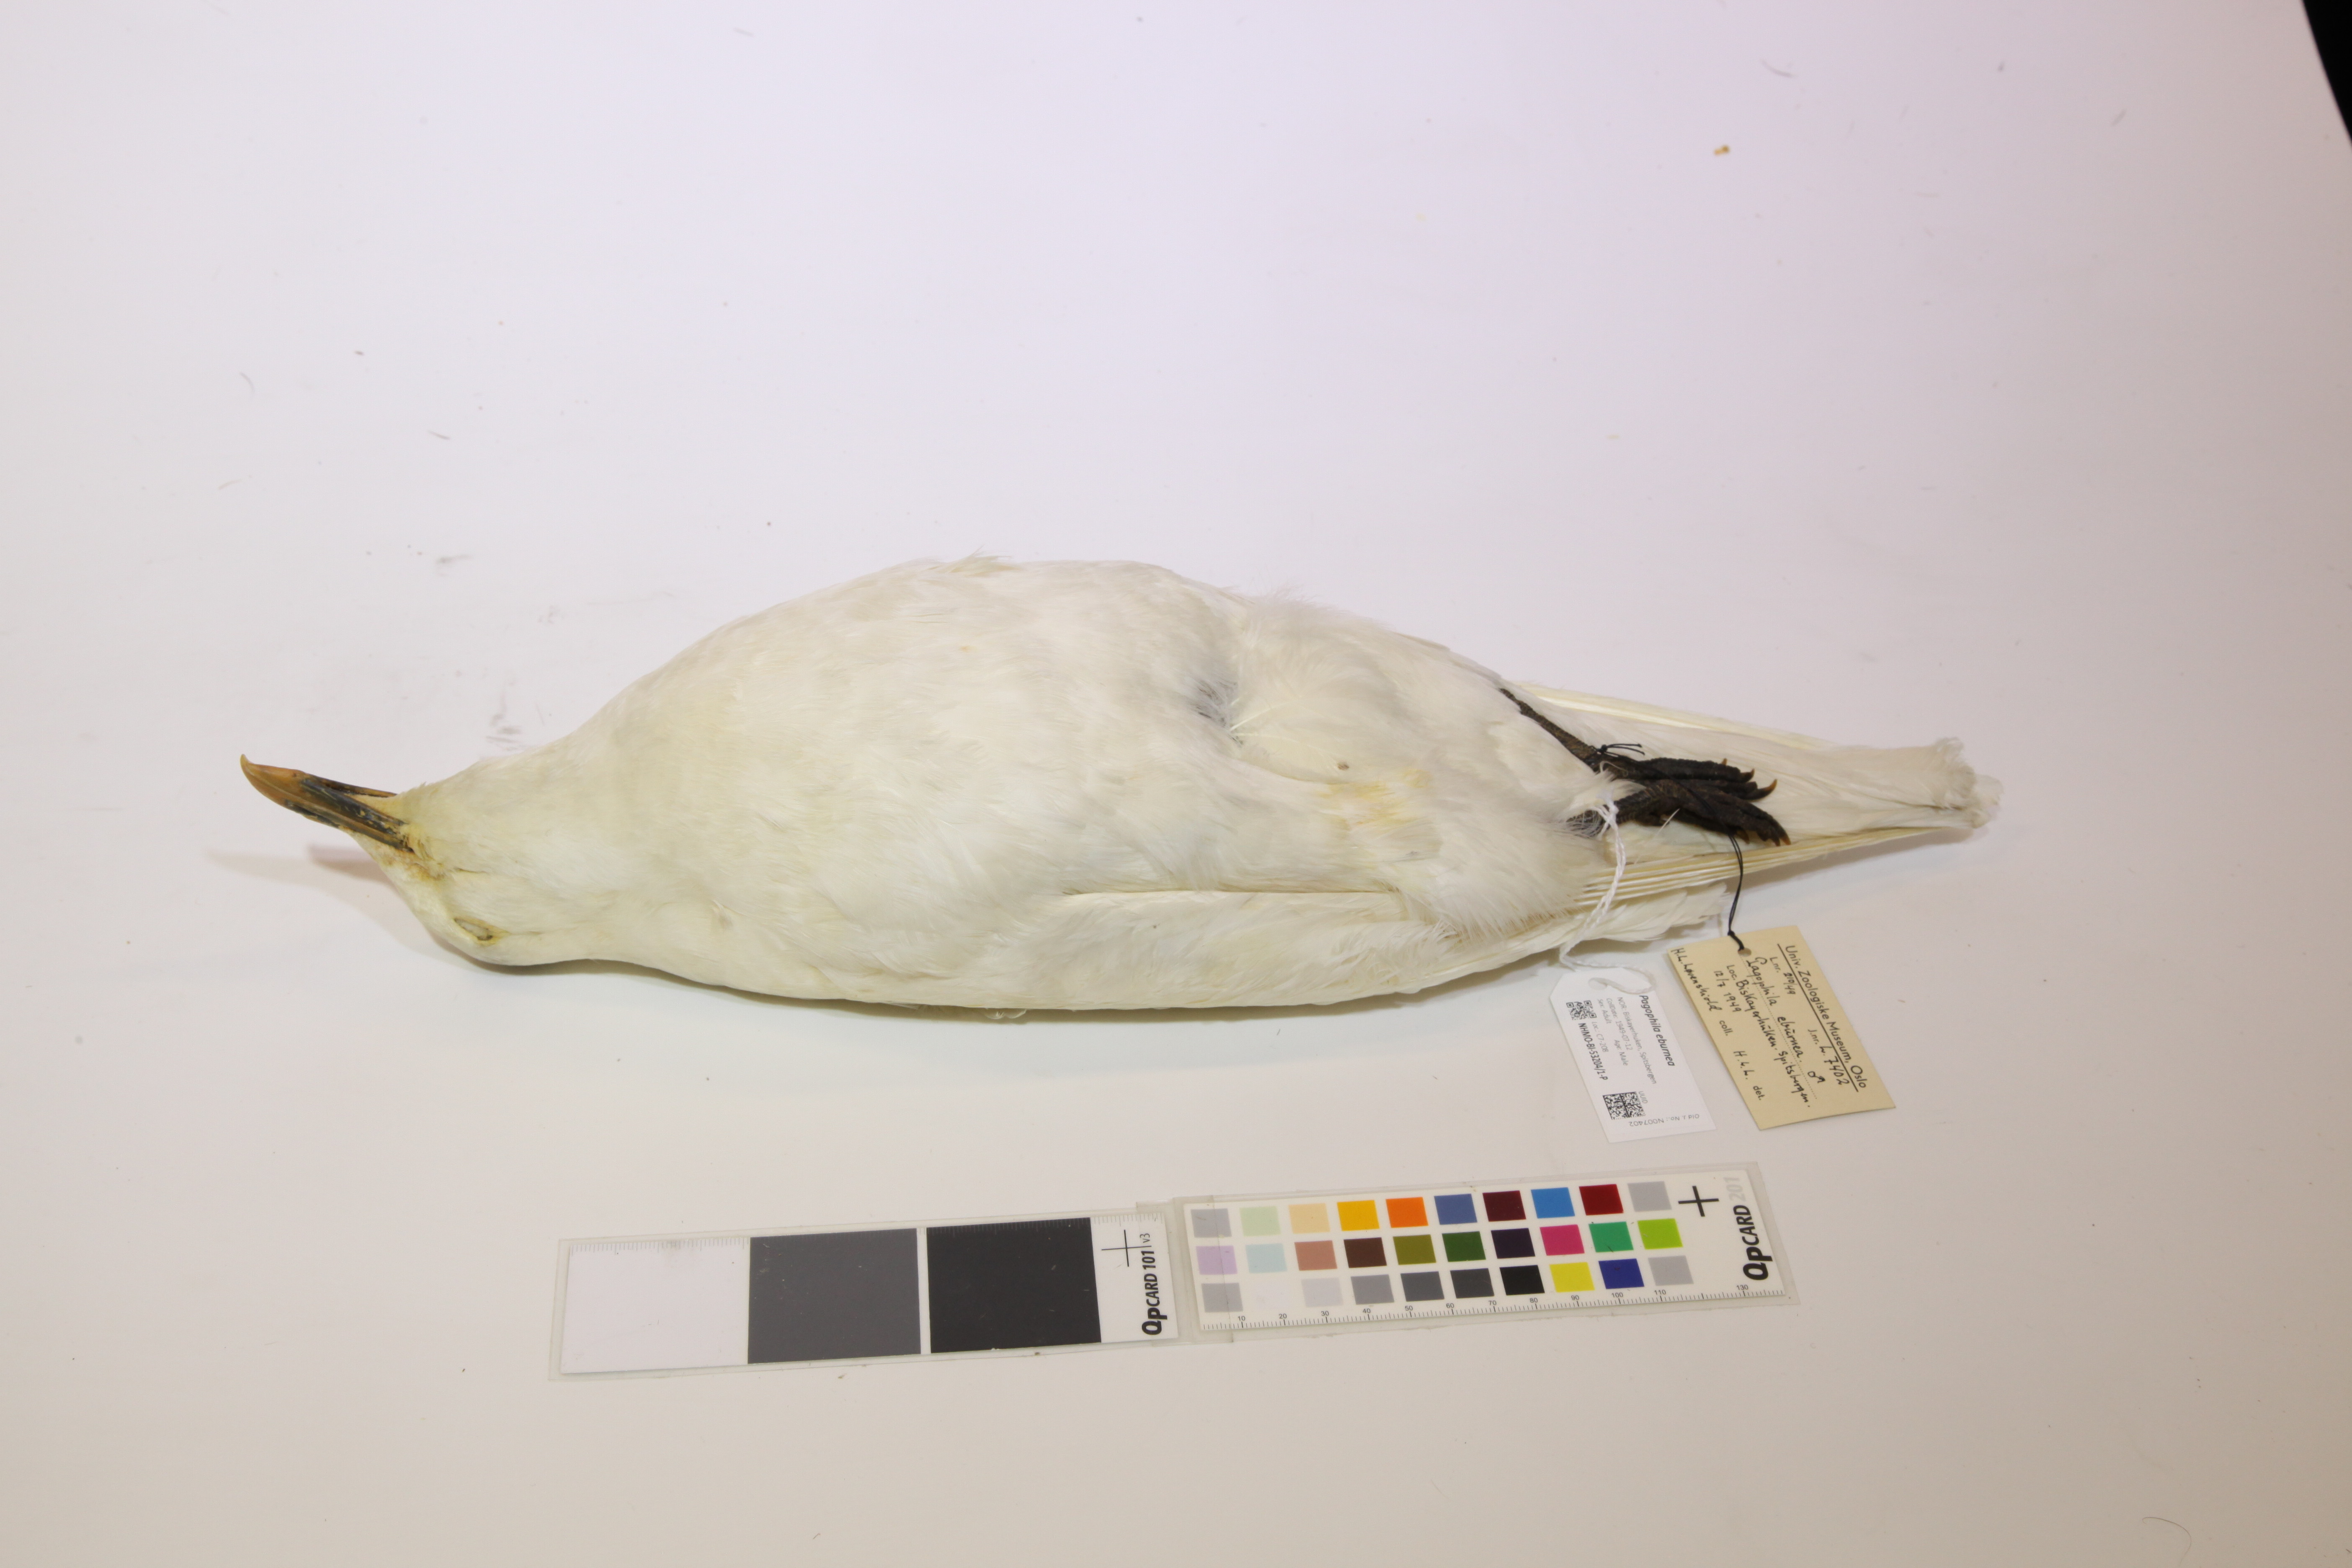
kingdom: Animalia
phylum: Chordata
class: Aves
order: Charadriiformes
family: Laridae
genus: Pagophila
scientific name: Pagophila eburnea
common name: Ivory gull
